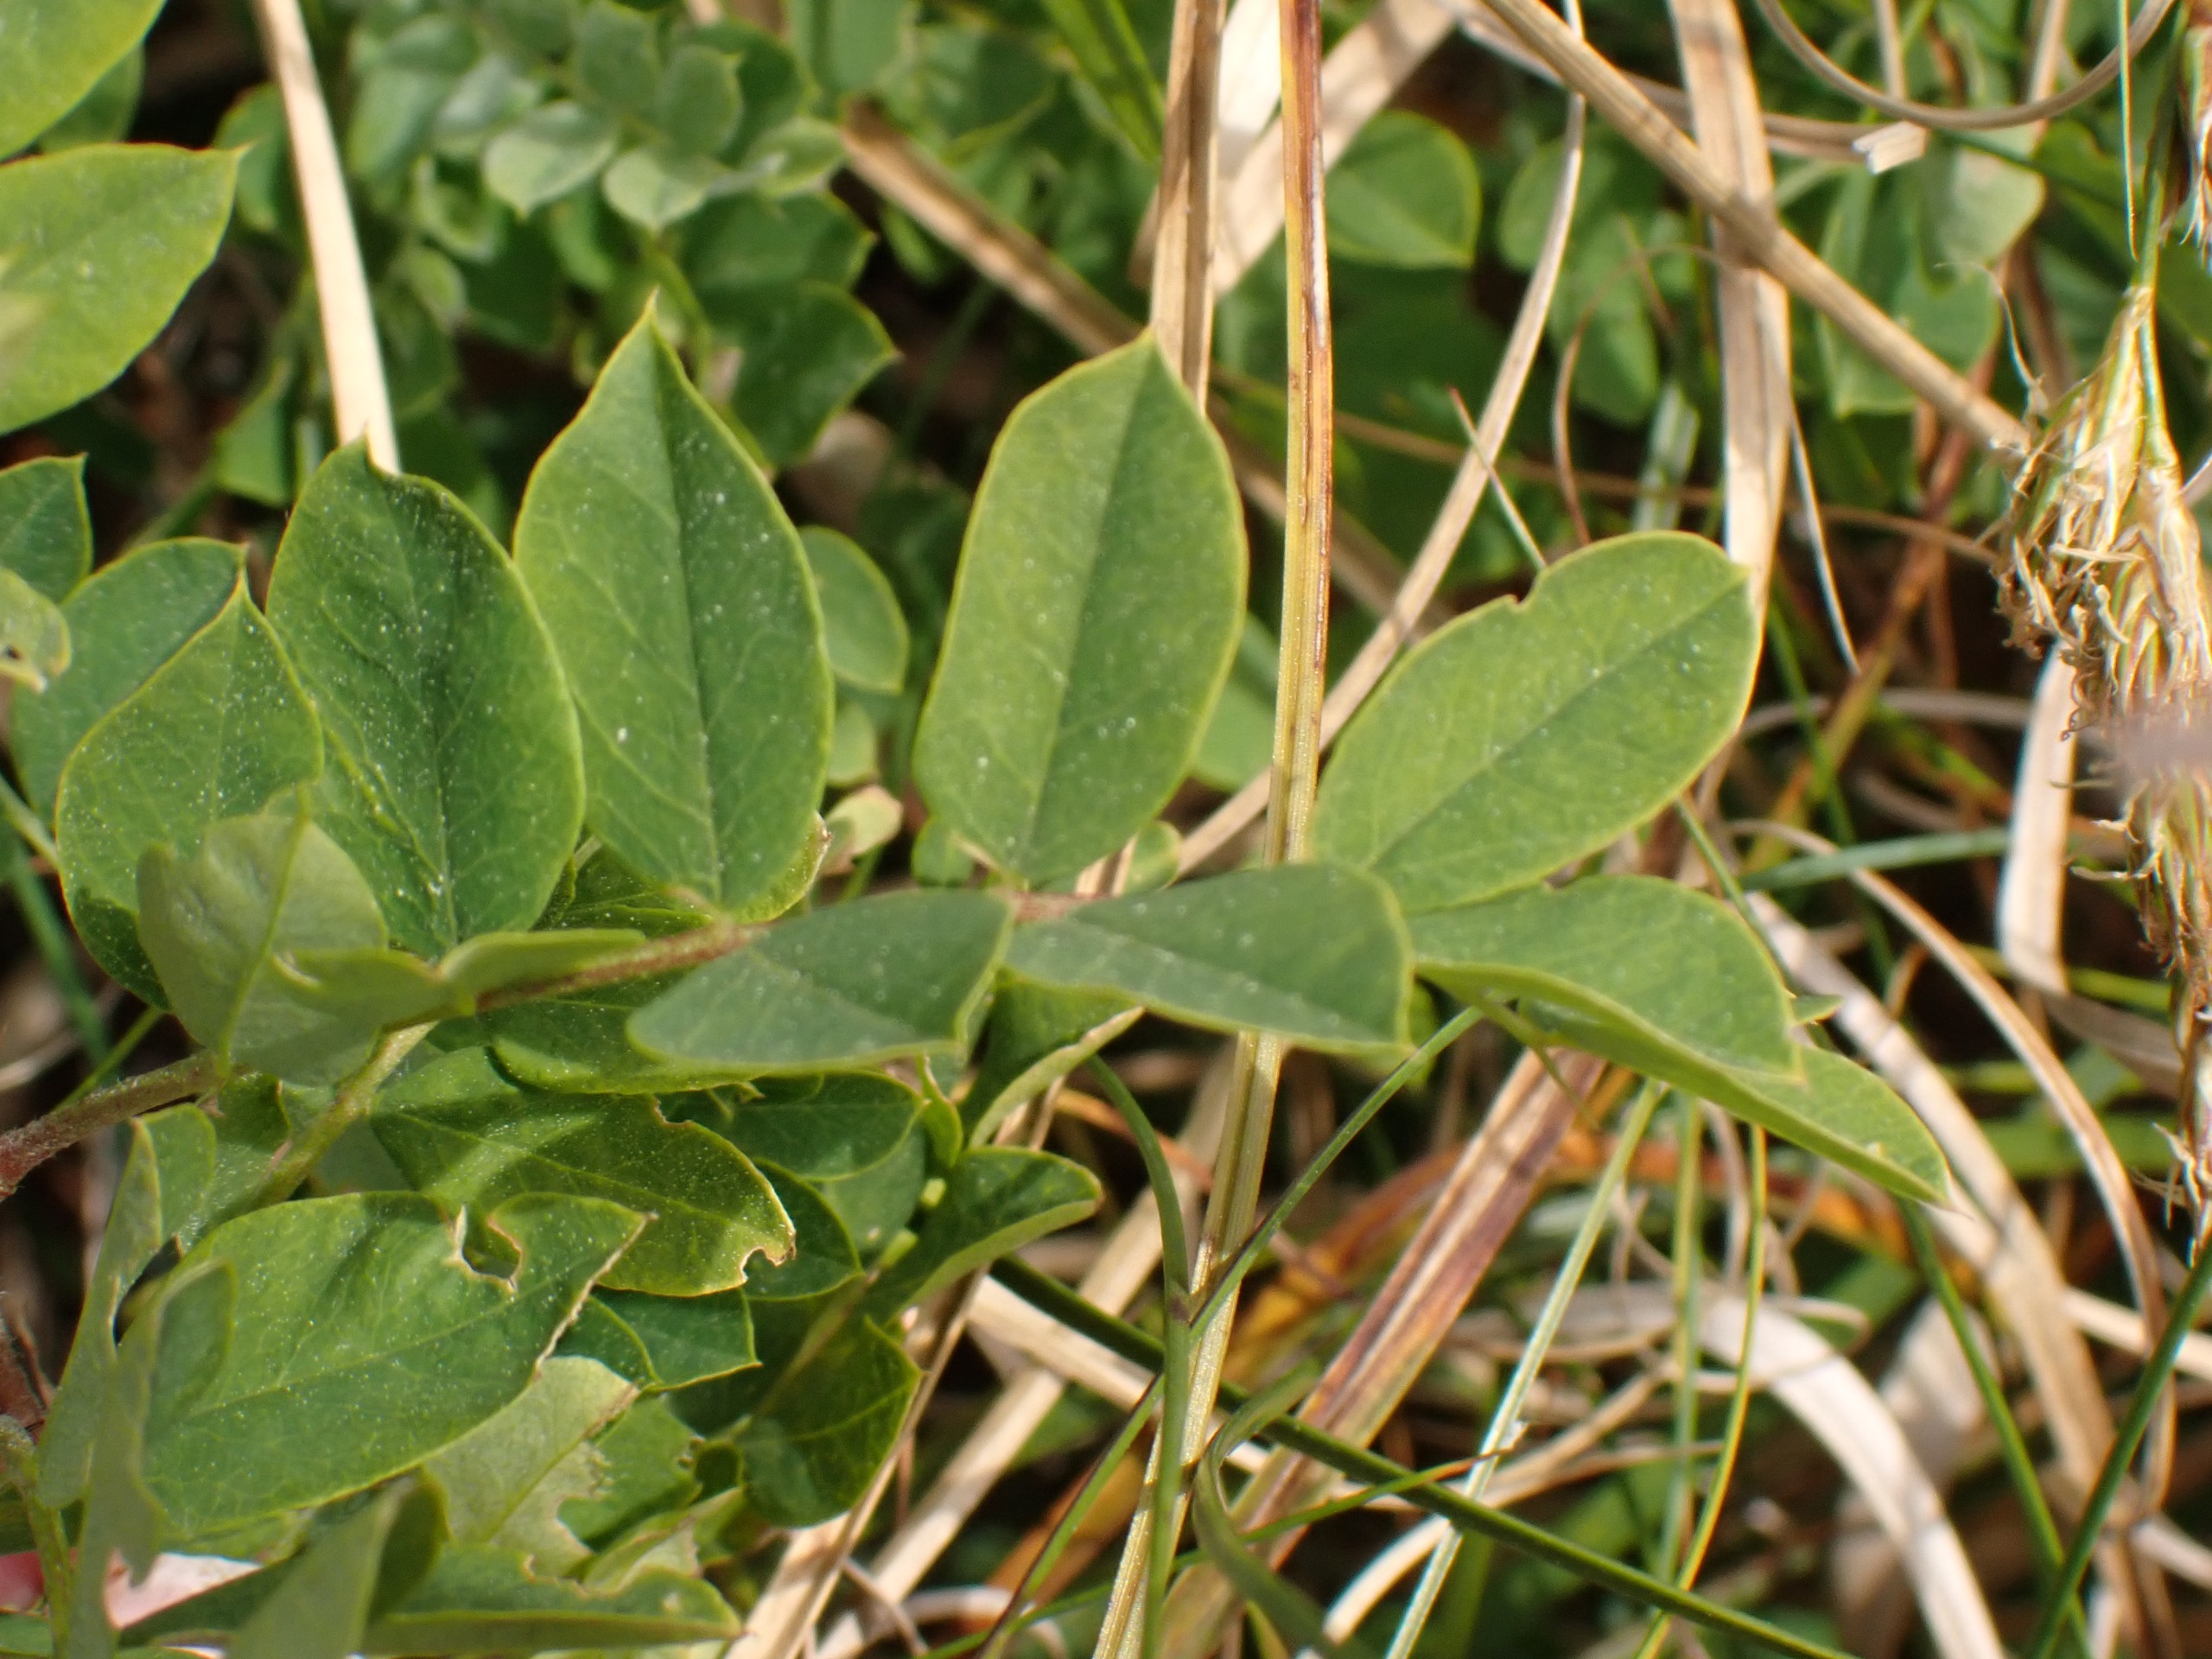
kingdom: Plantae
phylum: Tracheophyta
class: Magnoliopsida
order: Fabales
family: Fabaceae
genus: Astragalus
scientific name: Astragalus glycyphyllos
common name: Sød astragel
